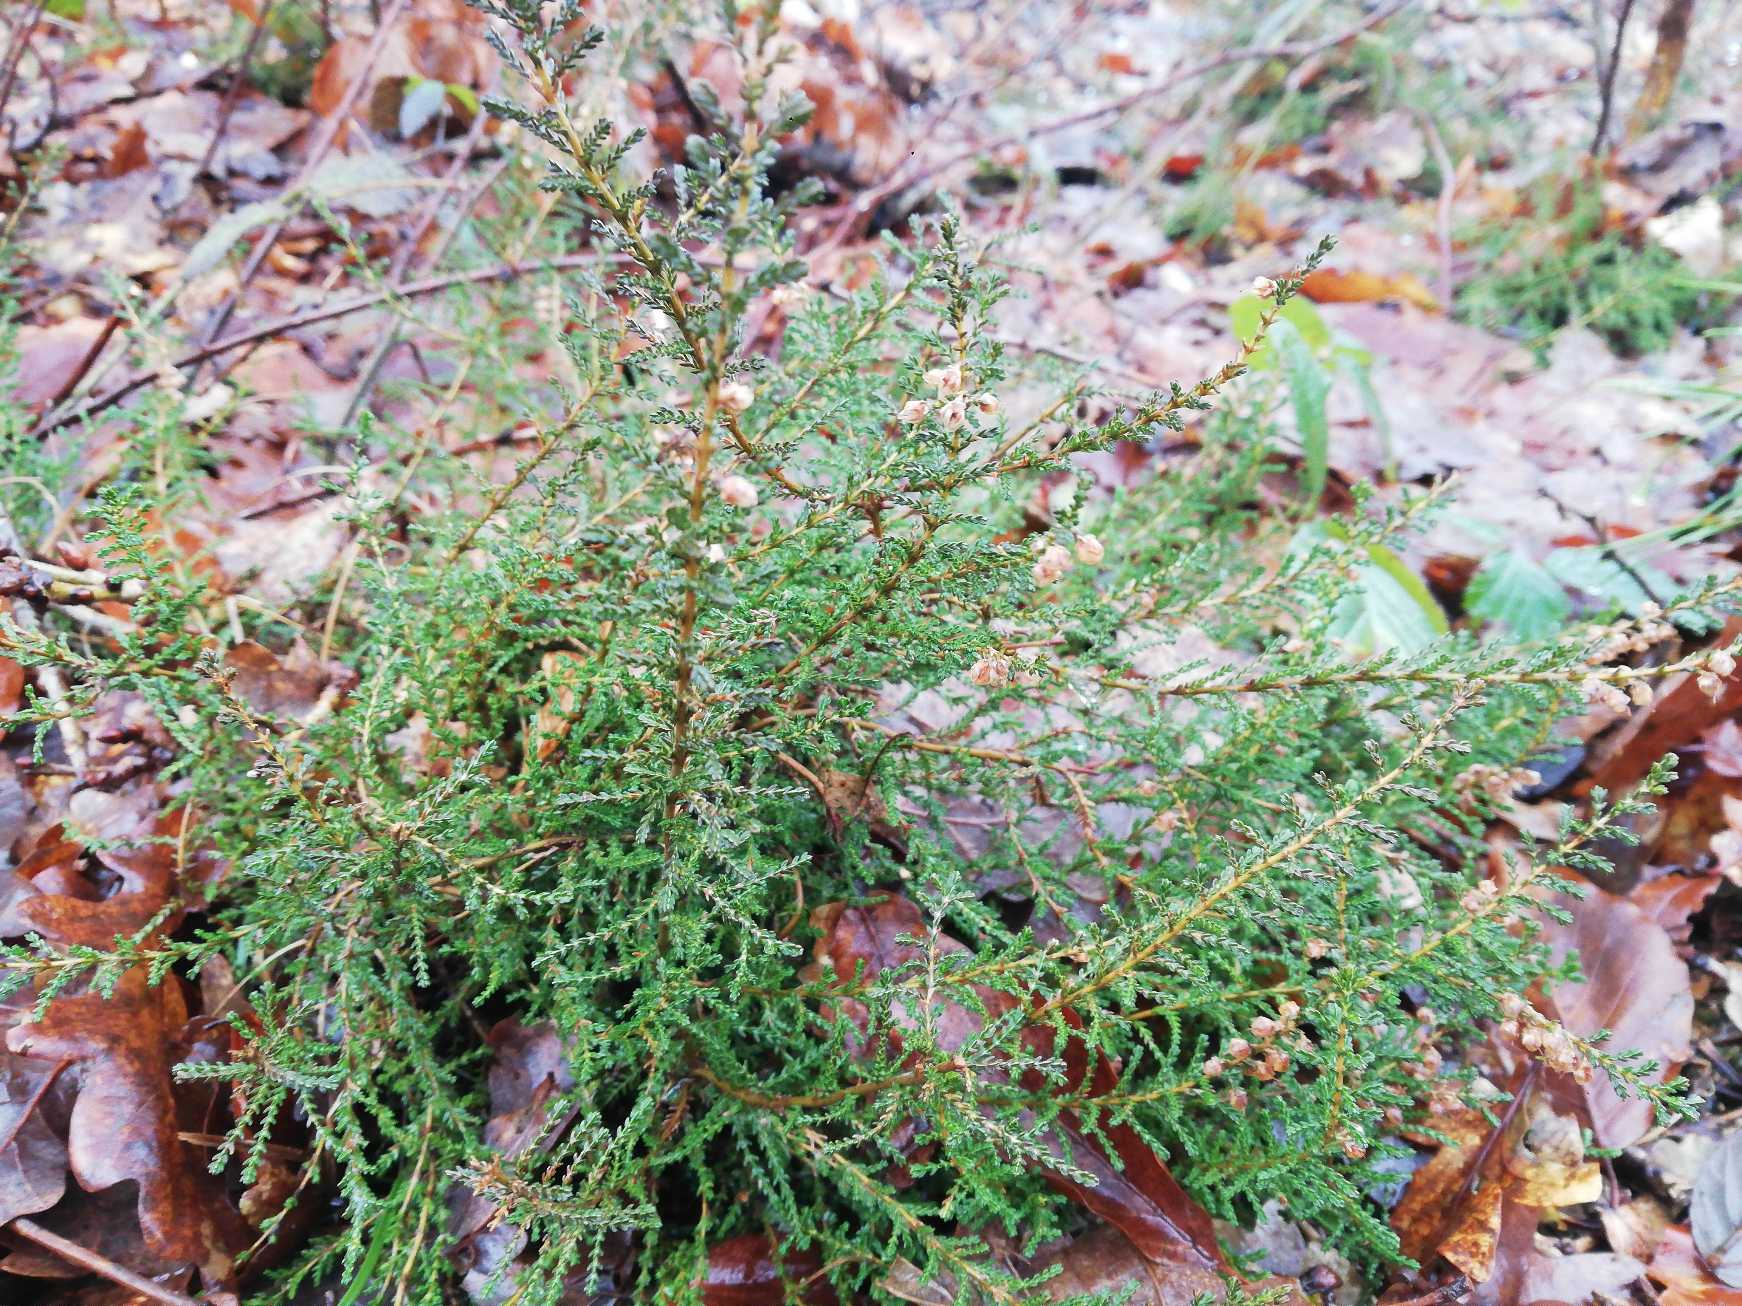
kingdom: Plantae
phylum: Tracheophyta
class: Magnoliopsida
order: Ericales
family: Ericaceae
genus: Calluna
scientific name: Calluna vulgaris
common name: Hedelyng
